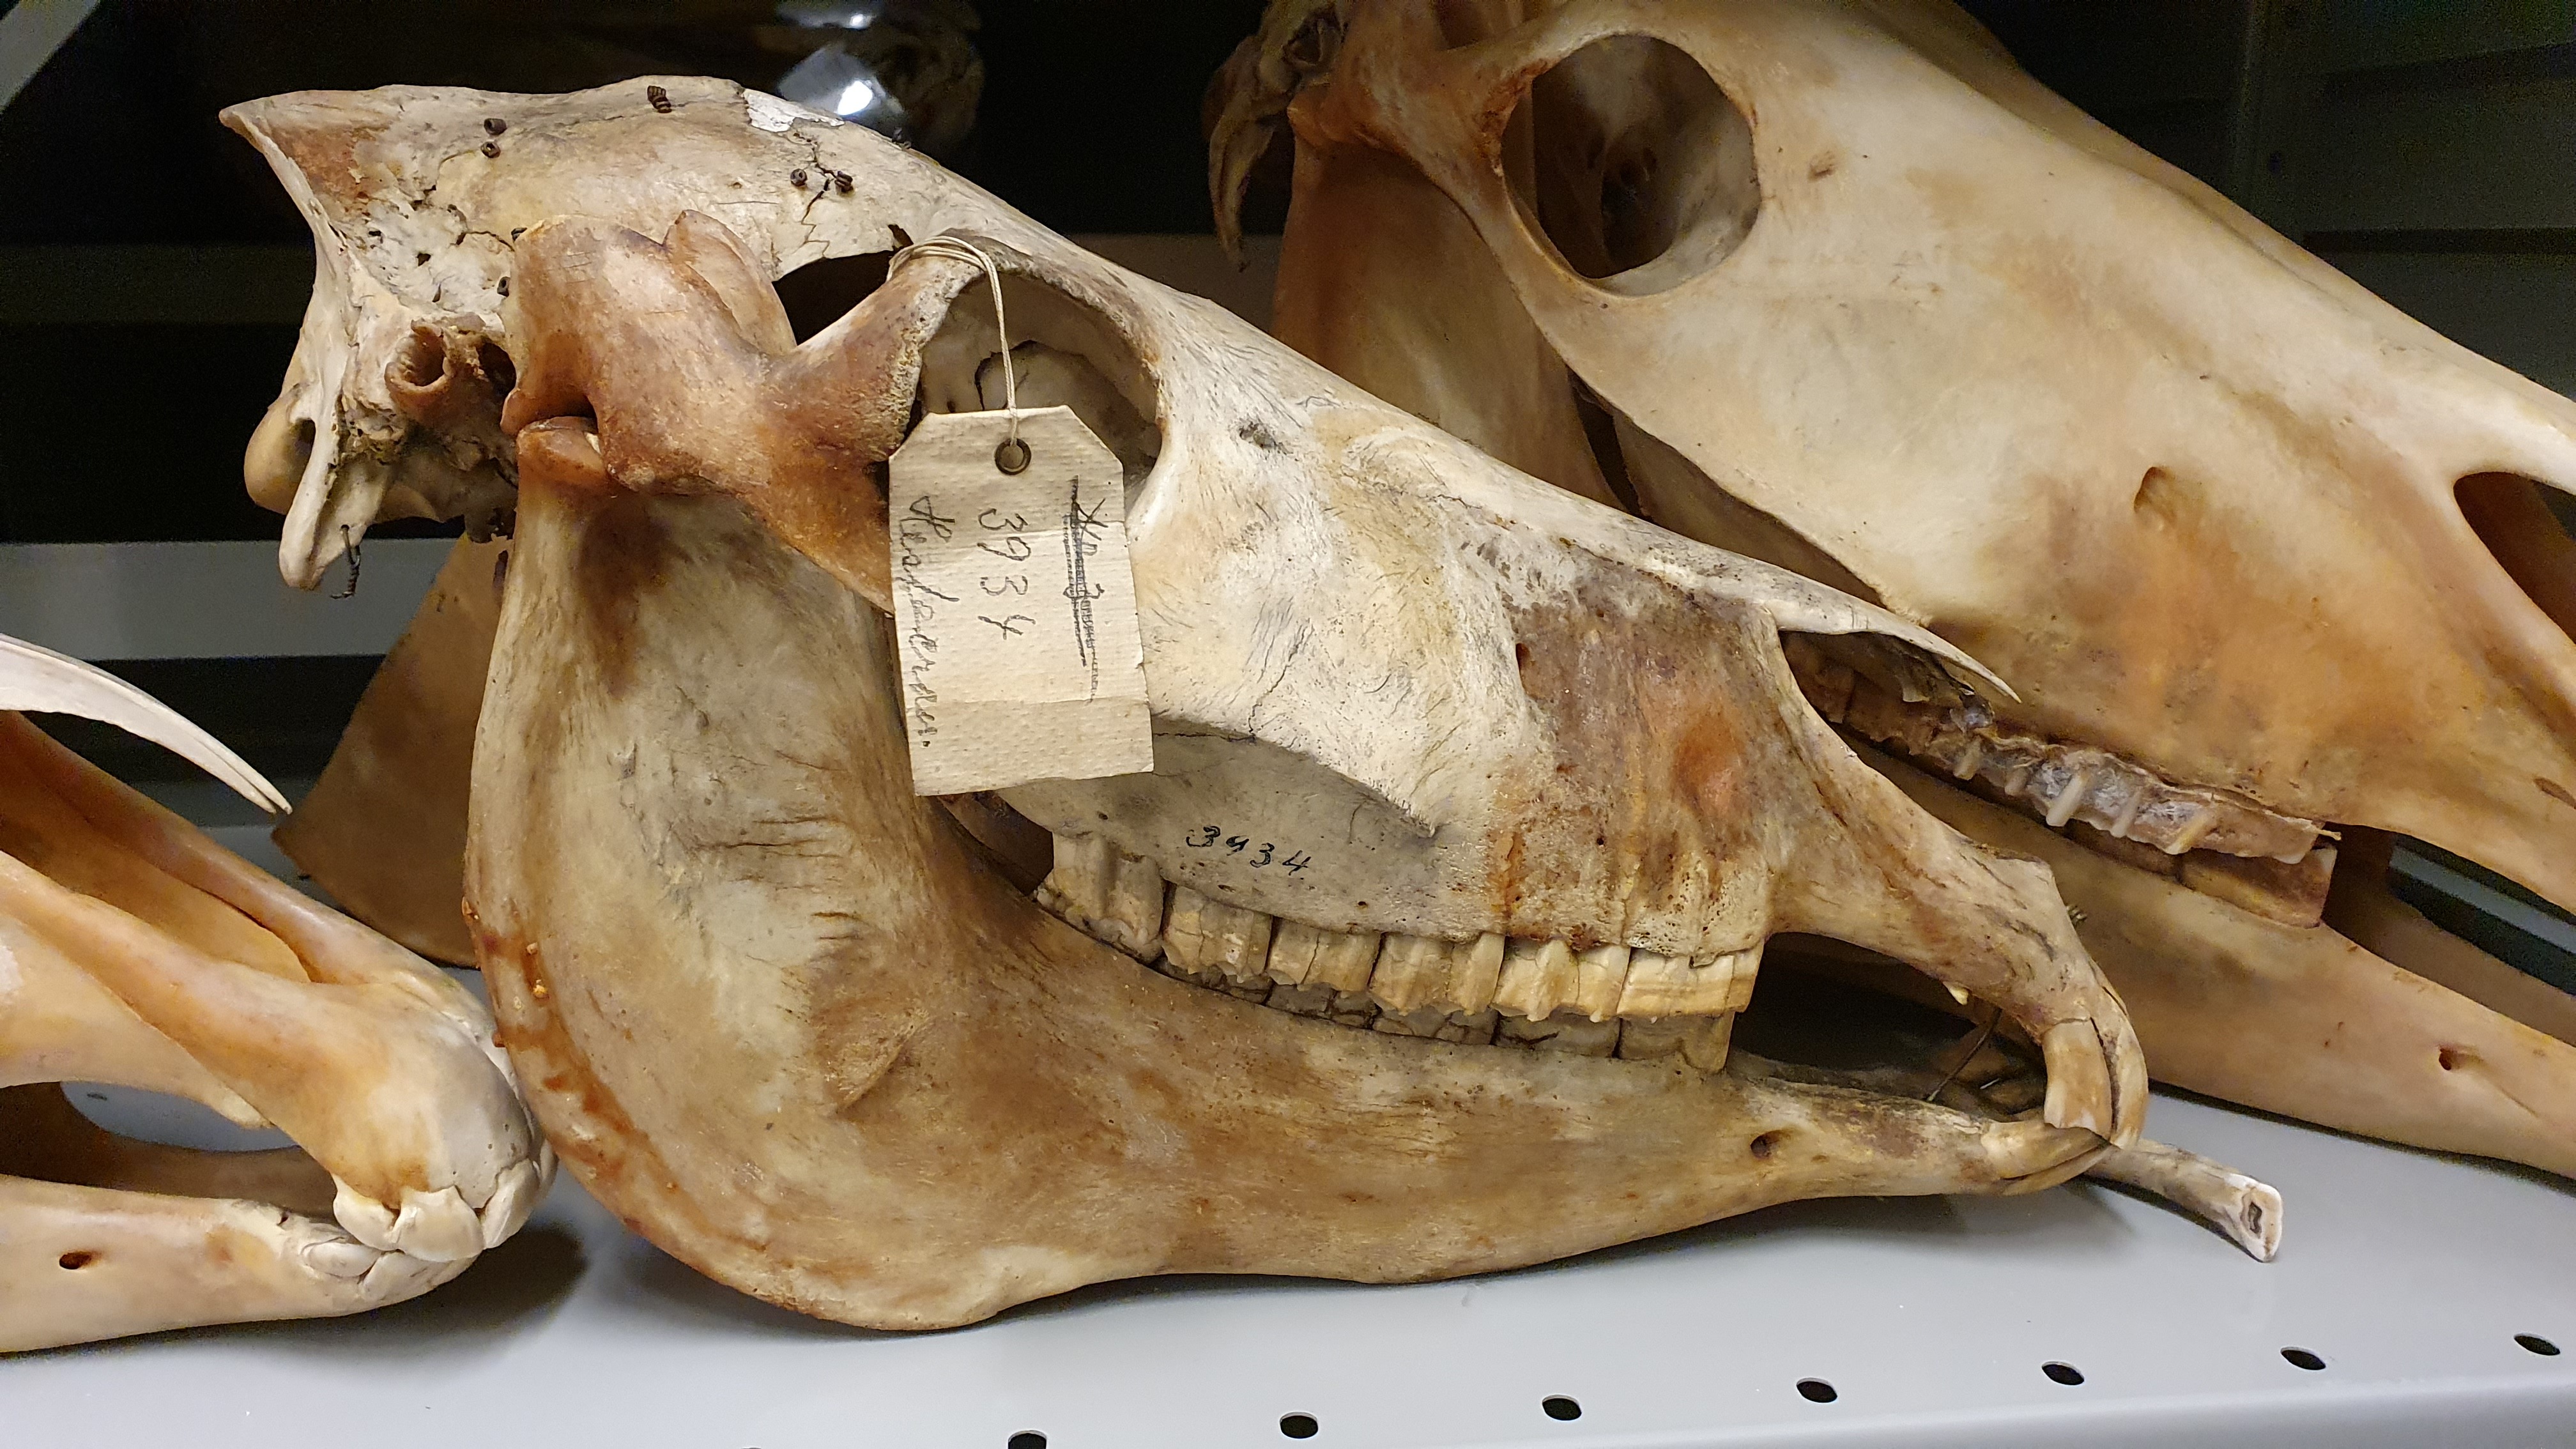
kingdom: Animalia
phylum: Chordata
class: Mammalia
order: Perissodactyla
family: Equidae
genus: Equus
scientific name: Equus asinus
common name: Ass
